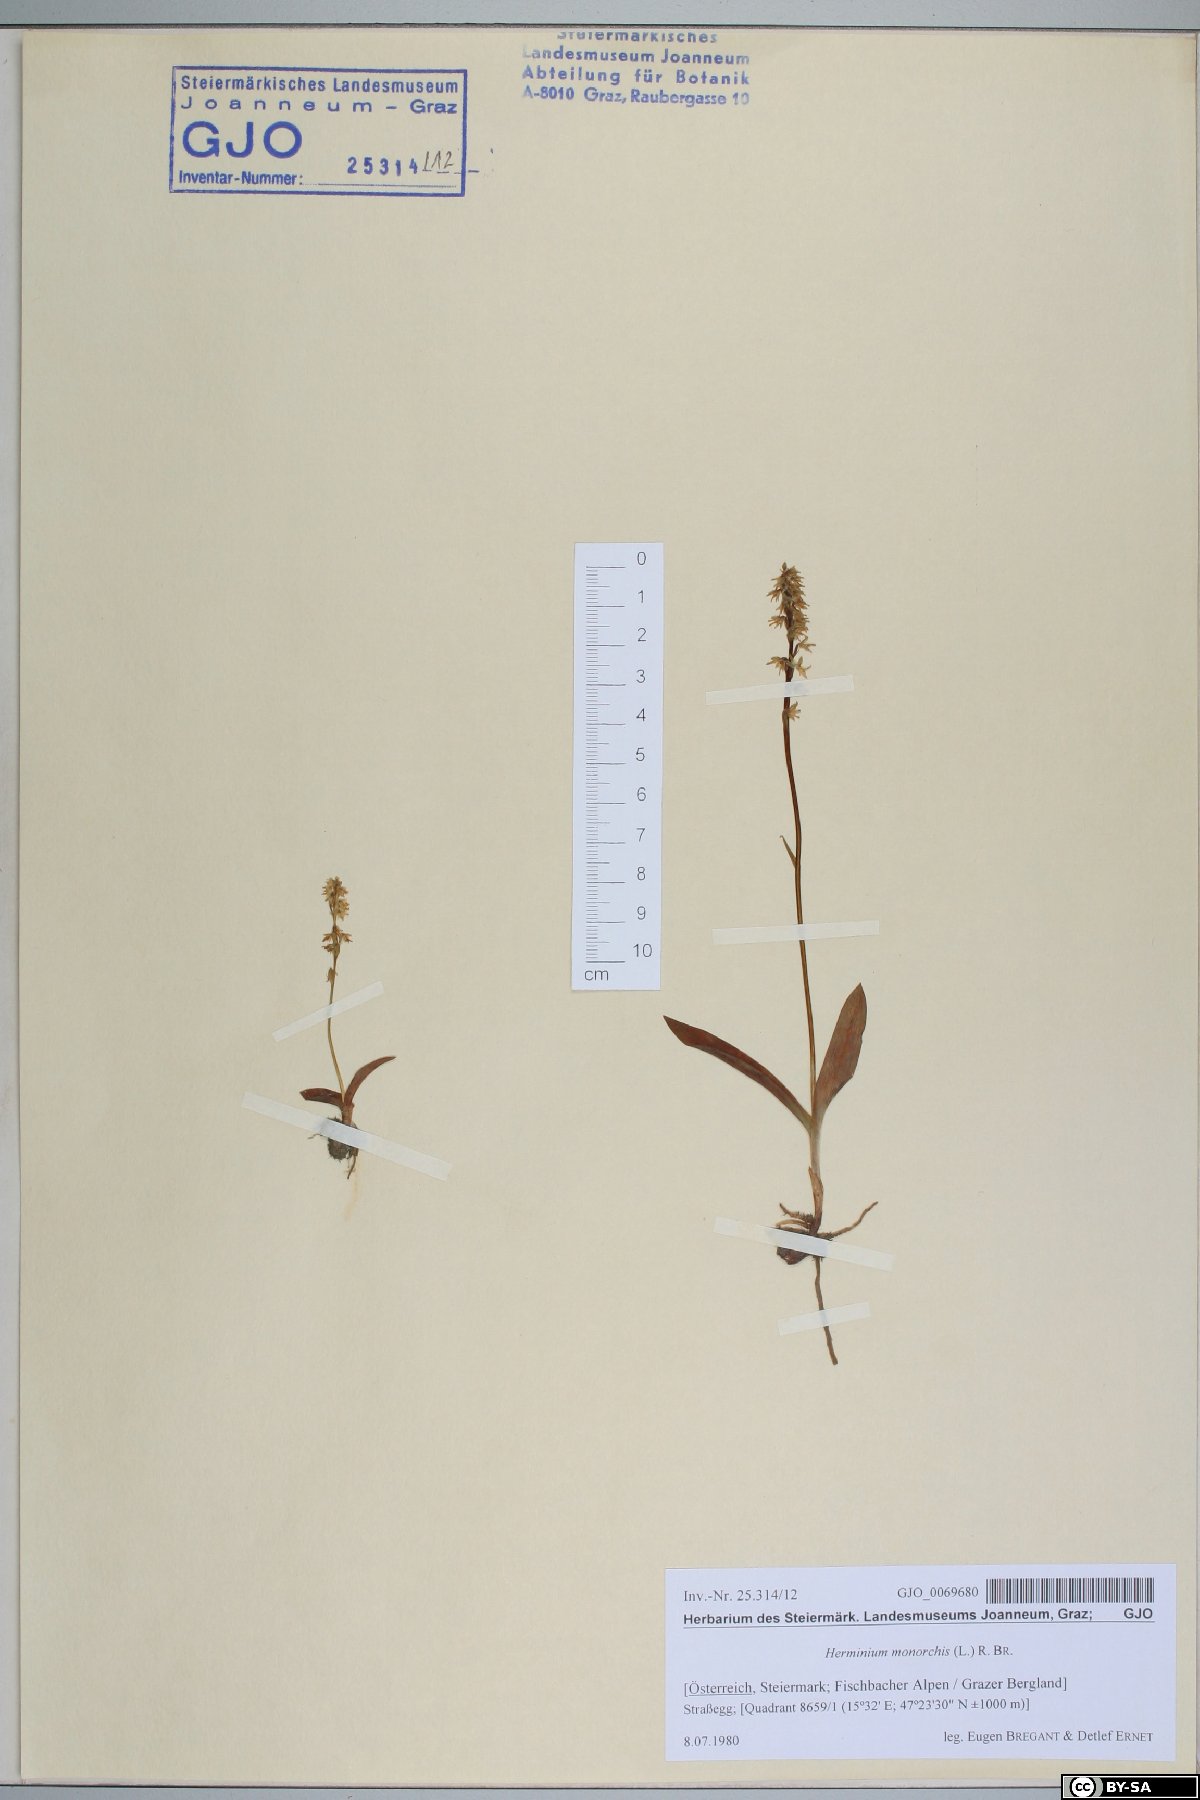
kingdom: Plantae
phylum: Tracheophyta
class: Liliopsida
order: Asparagales
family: Orchidaceae
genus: Herminium
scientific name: Herminium monorchis
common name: Musk orchid
